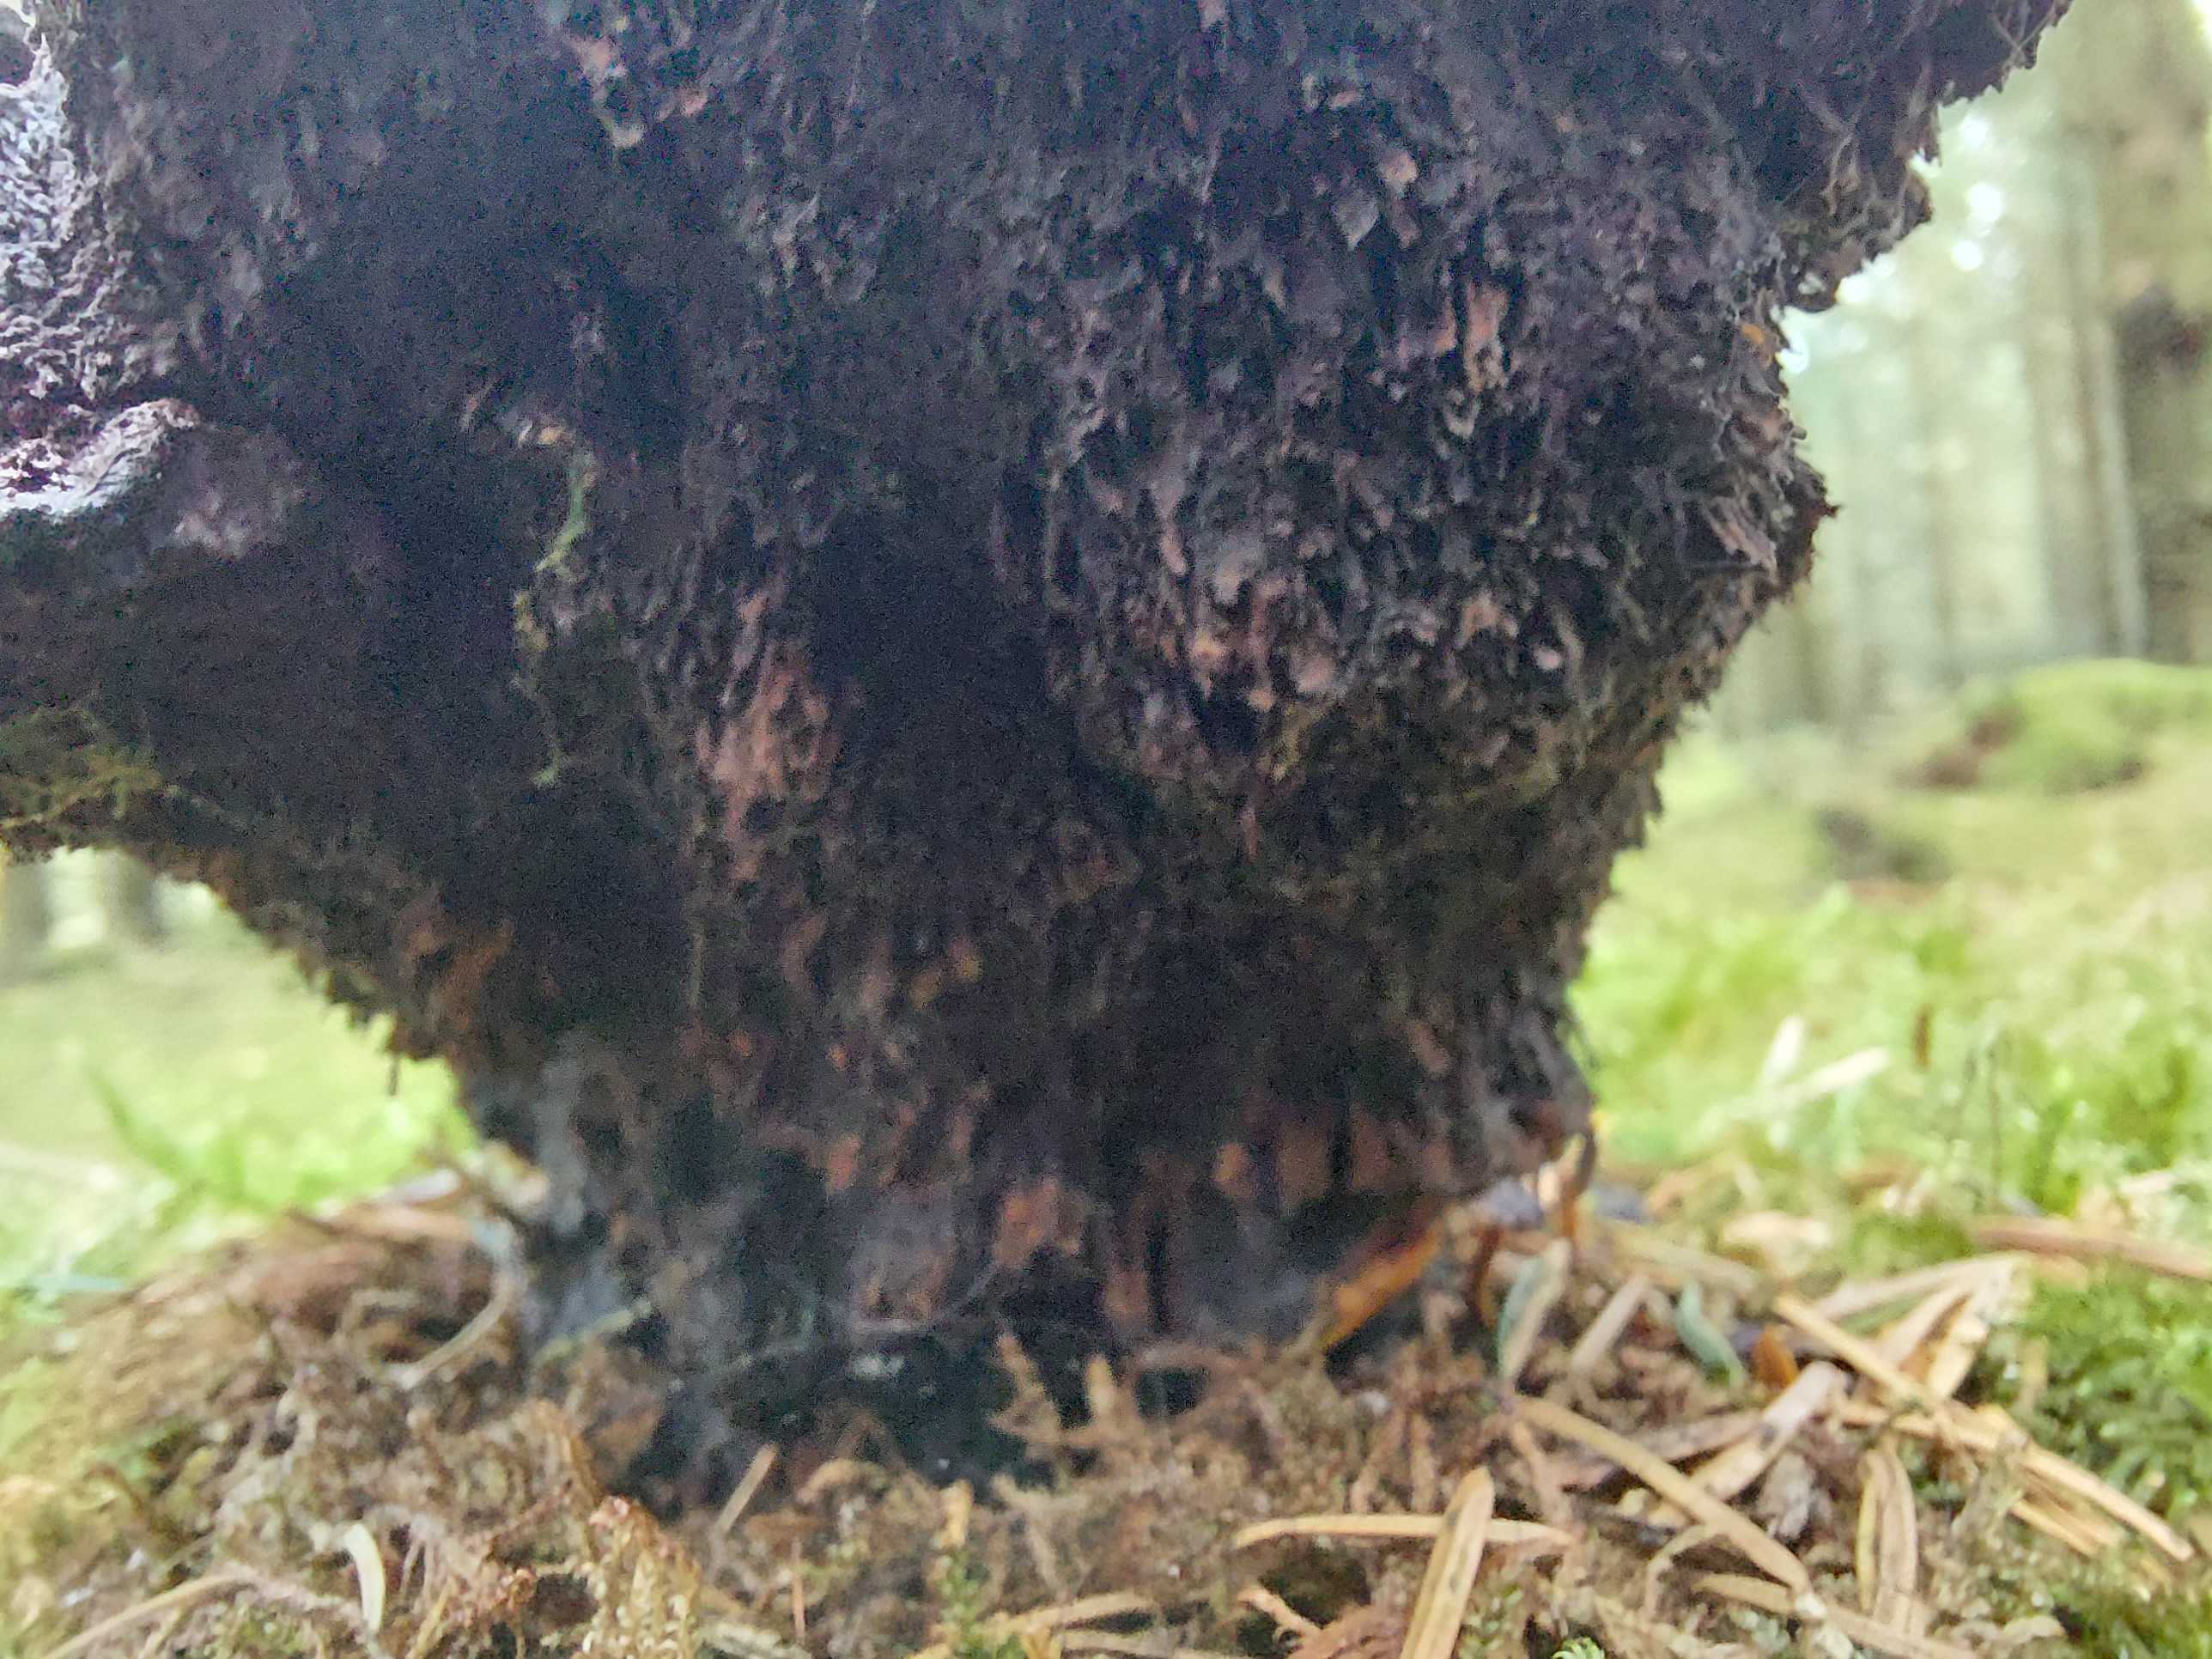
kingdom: Fungi
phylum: Basidiomycota
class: Agaricomycetes
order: Polyporales
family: Laetiporaceae
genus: Phaeolus
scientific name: Phaeolus schweinitzii
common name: brunporesvamp
